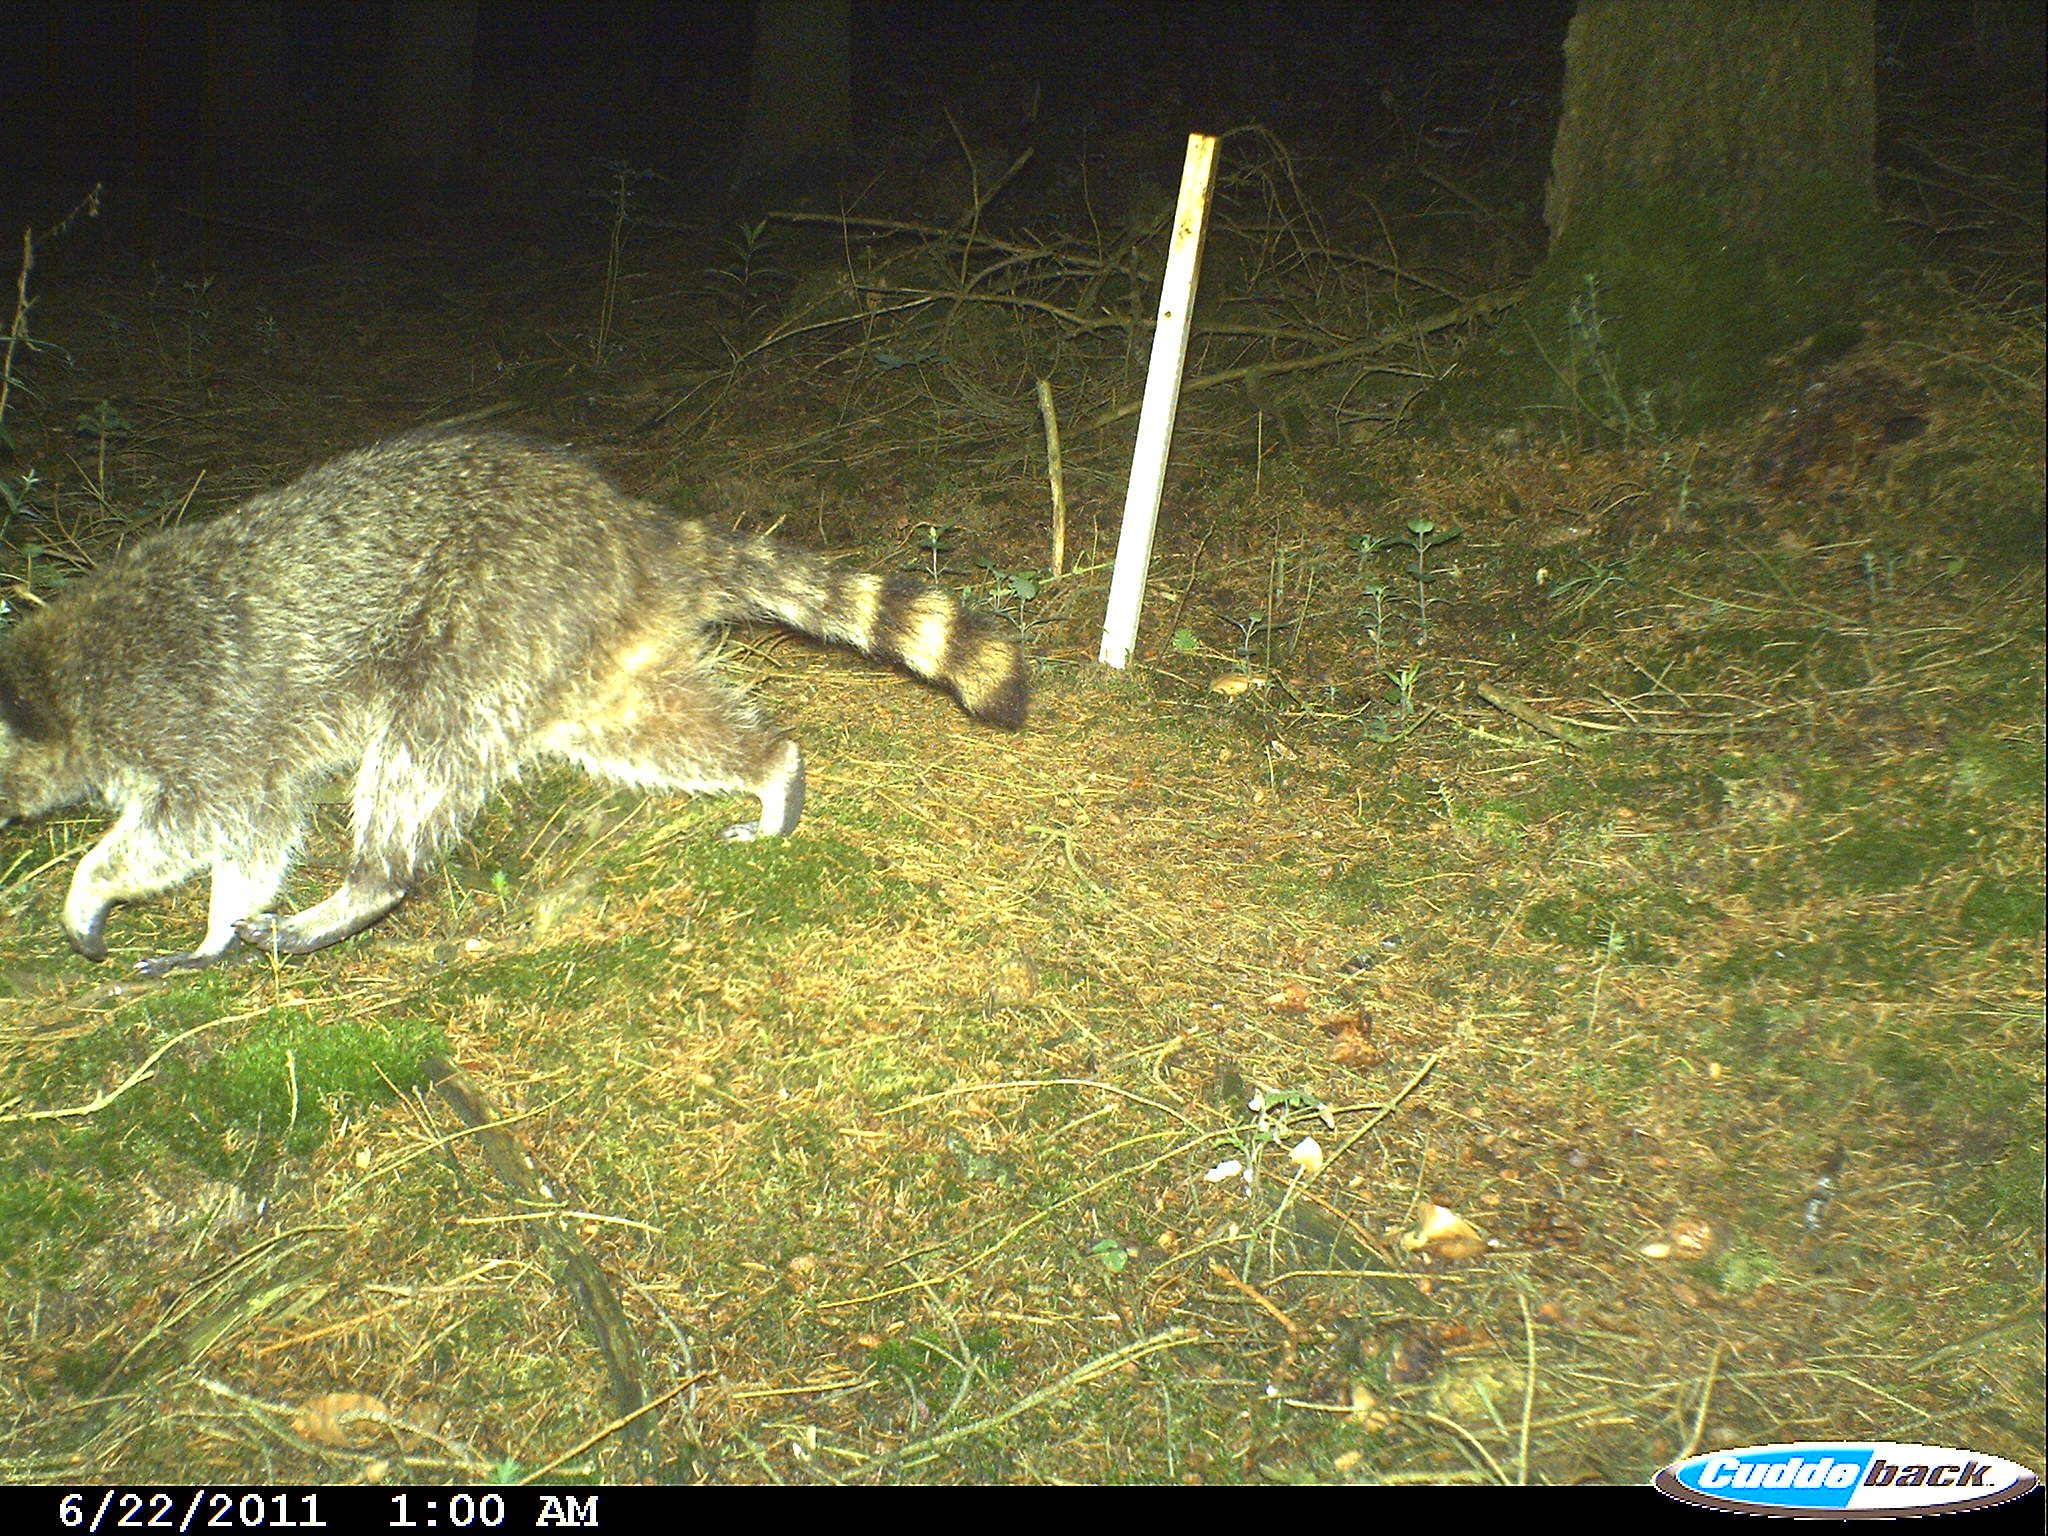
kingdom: Animalia
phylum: Chordata
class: Mammalia
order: Carnivora
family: Procyonidae
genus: Procyon
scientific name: Procyon lotor
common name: Raccoon
